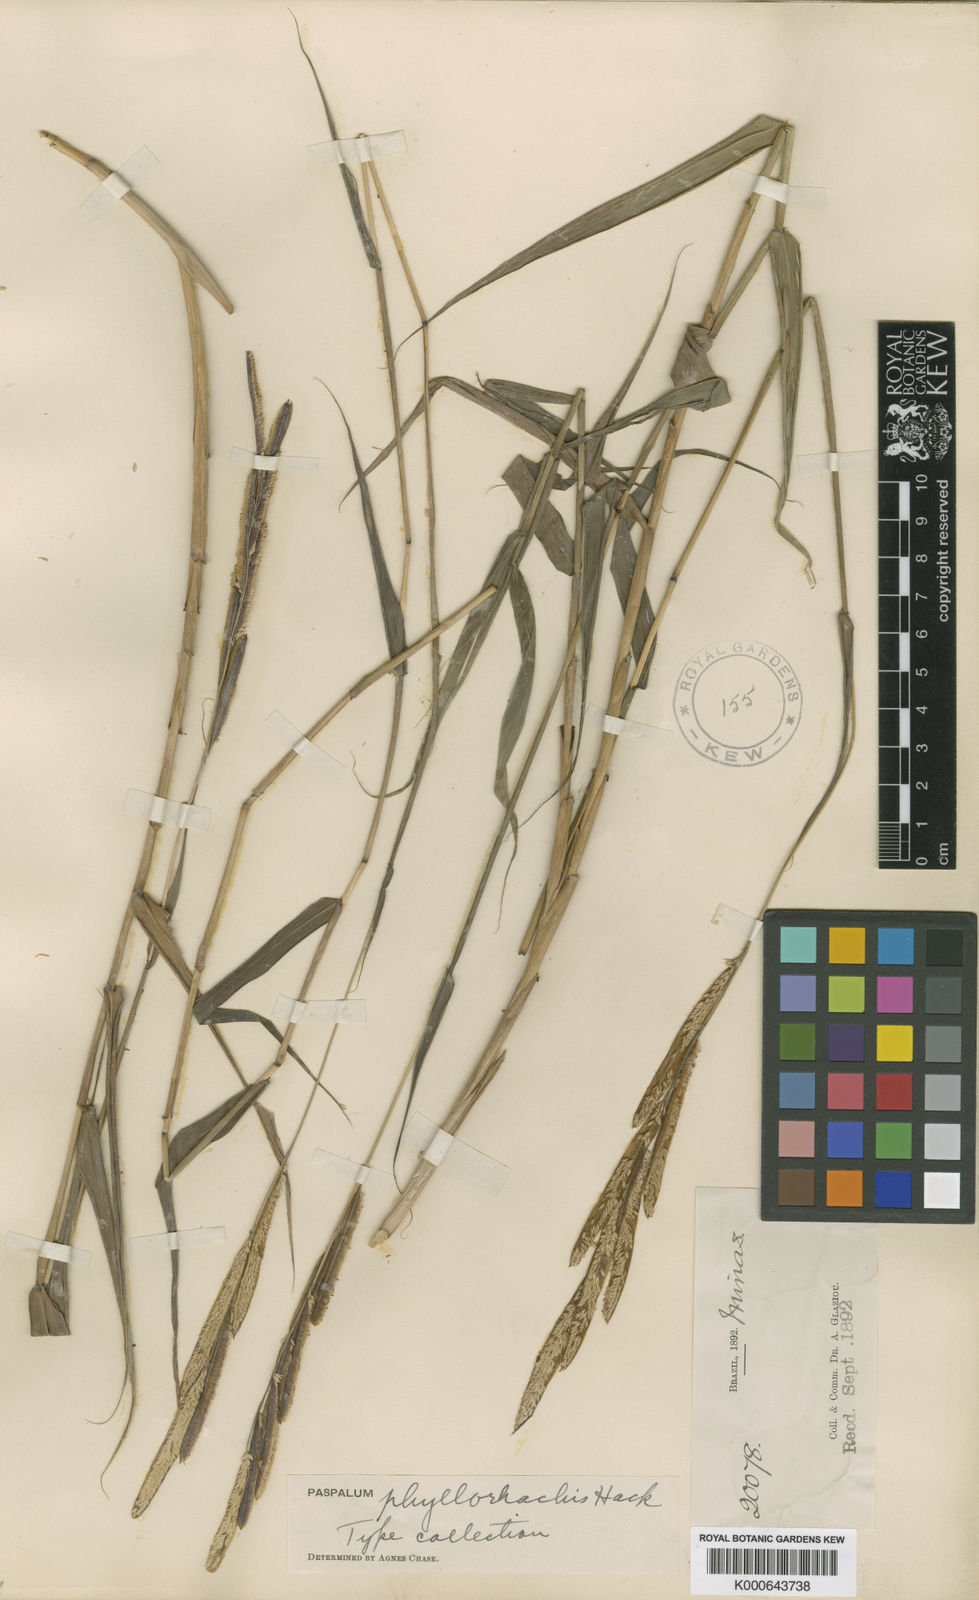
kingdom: Plantae
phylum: Tracheophyta
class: Liliopsida
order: Poales
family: Poaceae
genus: Paspalum
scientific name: Paspalum phyllorhachis
